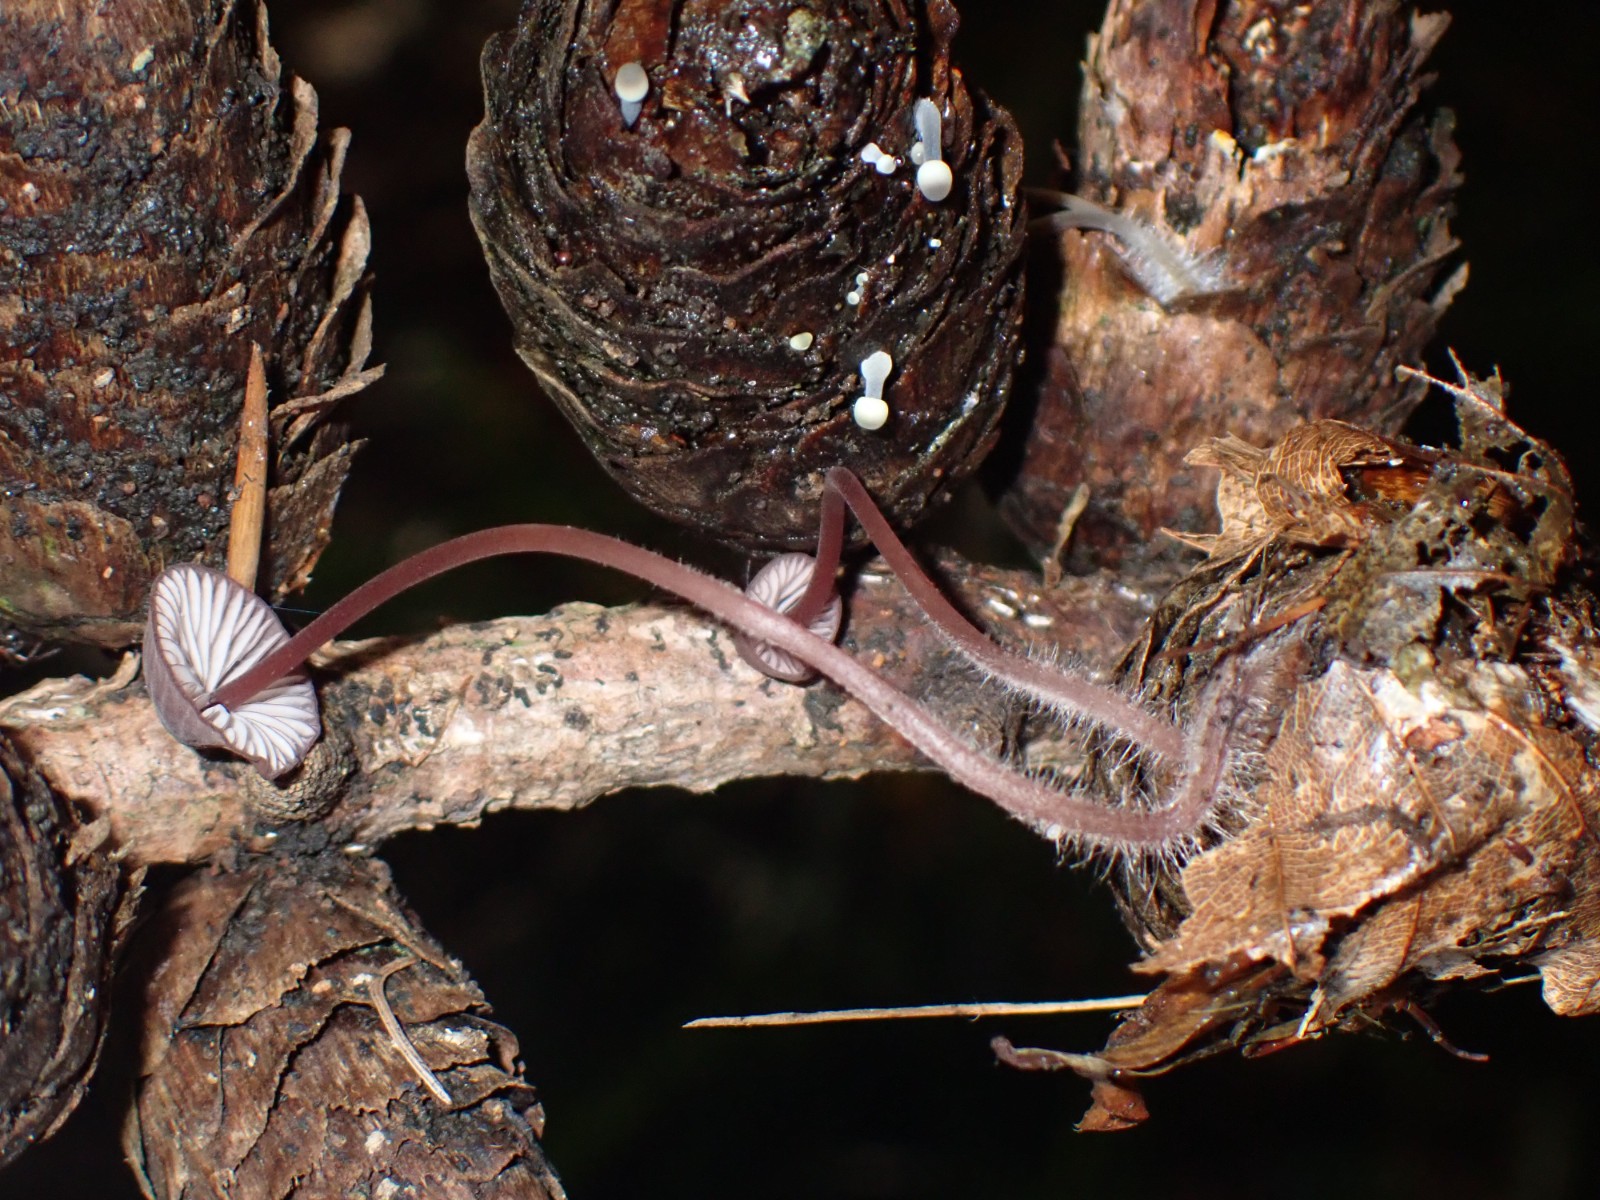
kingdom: Fungi
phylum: Basidiomycota
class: Agaricomycetes
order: Agaricales
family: Mycenaceae
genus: Mycena
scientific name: Mycena sanguinolenta
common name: rødmælket huesvamp
